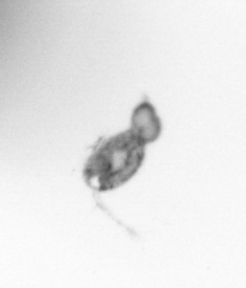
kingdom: Animalia
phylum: Arthropoda
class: Copepoda
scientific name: Copepoda
